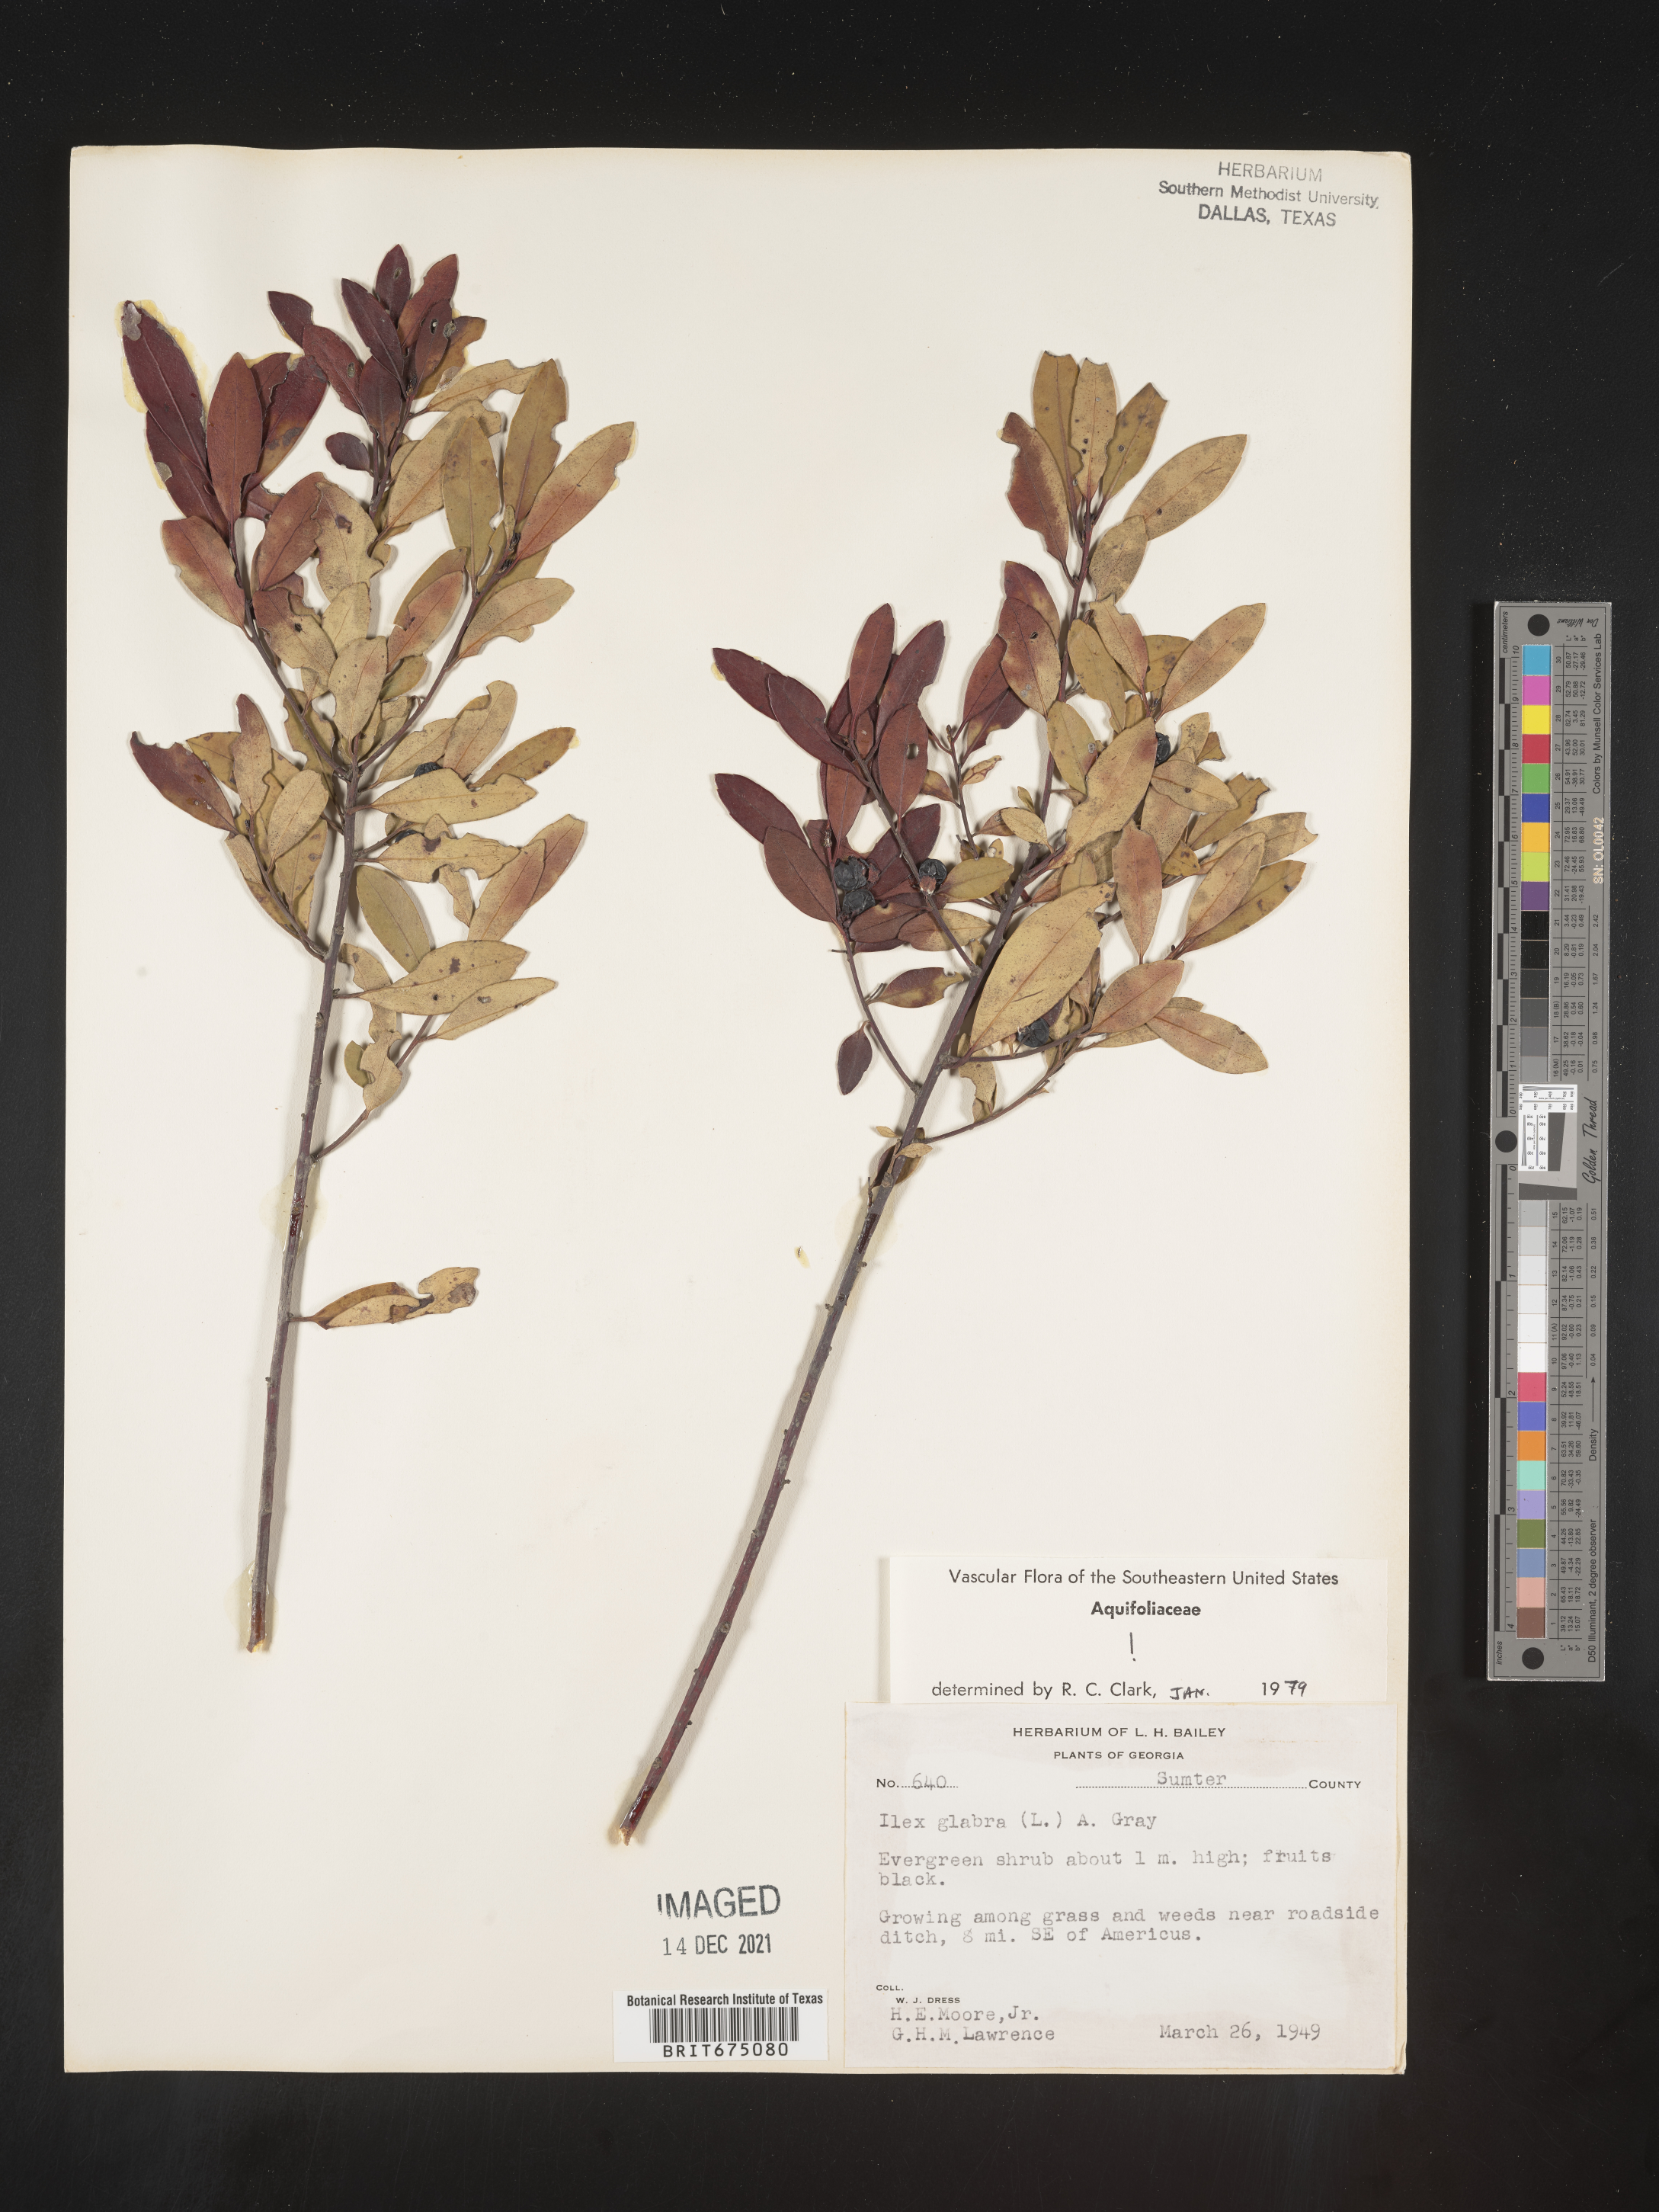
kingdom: Plantae
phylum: Tracheophyta
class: Magnoliopsida
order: Aquifoliales
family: Aquifoliaceae
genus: Ilex
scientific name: Ilex glabra
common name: Bitter gallberry
